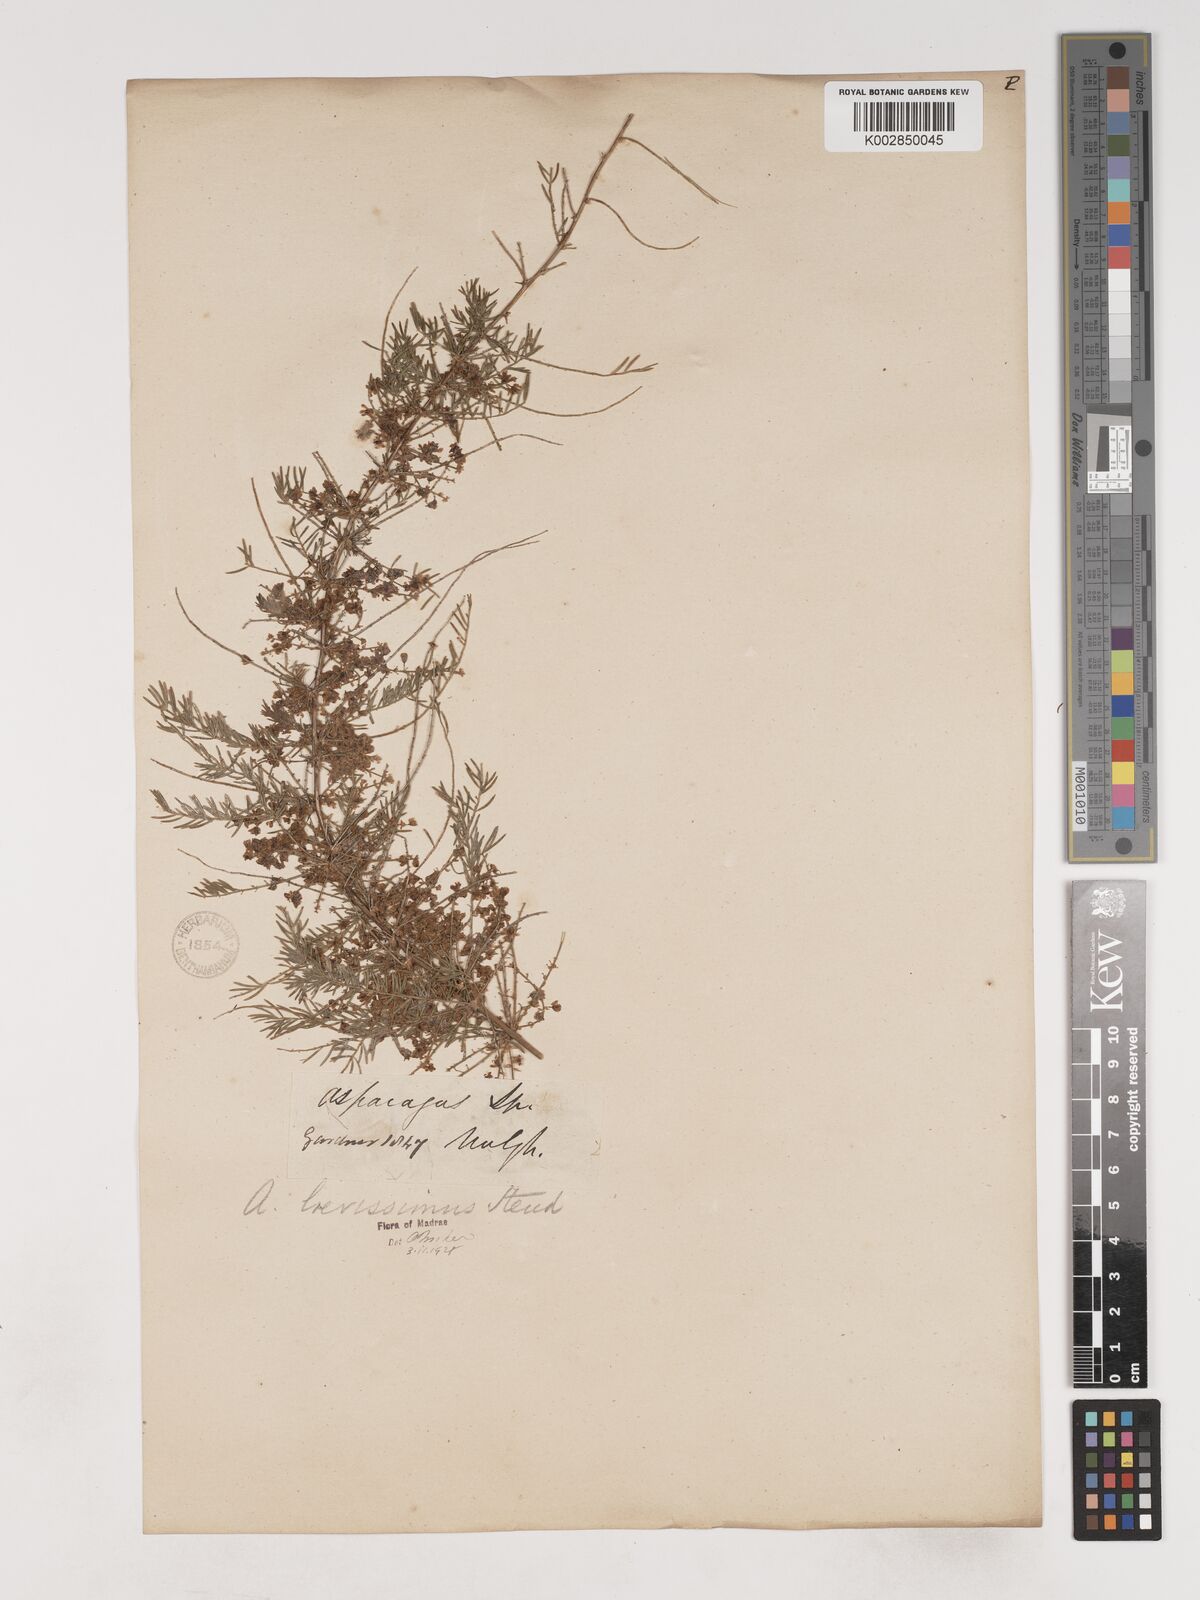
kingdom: Plantae
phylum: Tracheophyta
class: Liliopsida
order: Asparagales
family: Asparagaceae
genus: Asparagus
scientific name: Asparagus laevissimus
